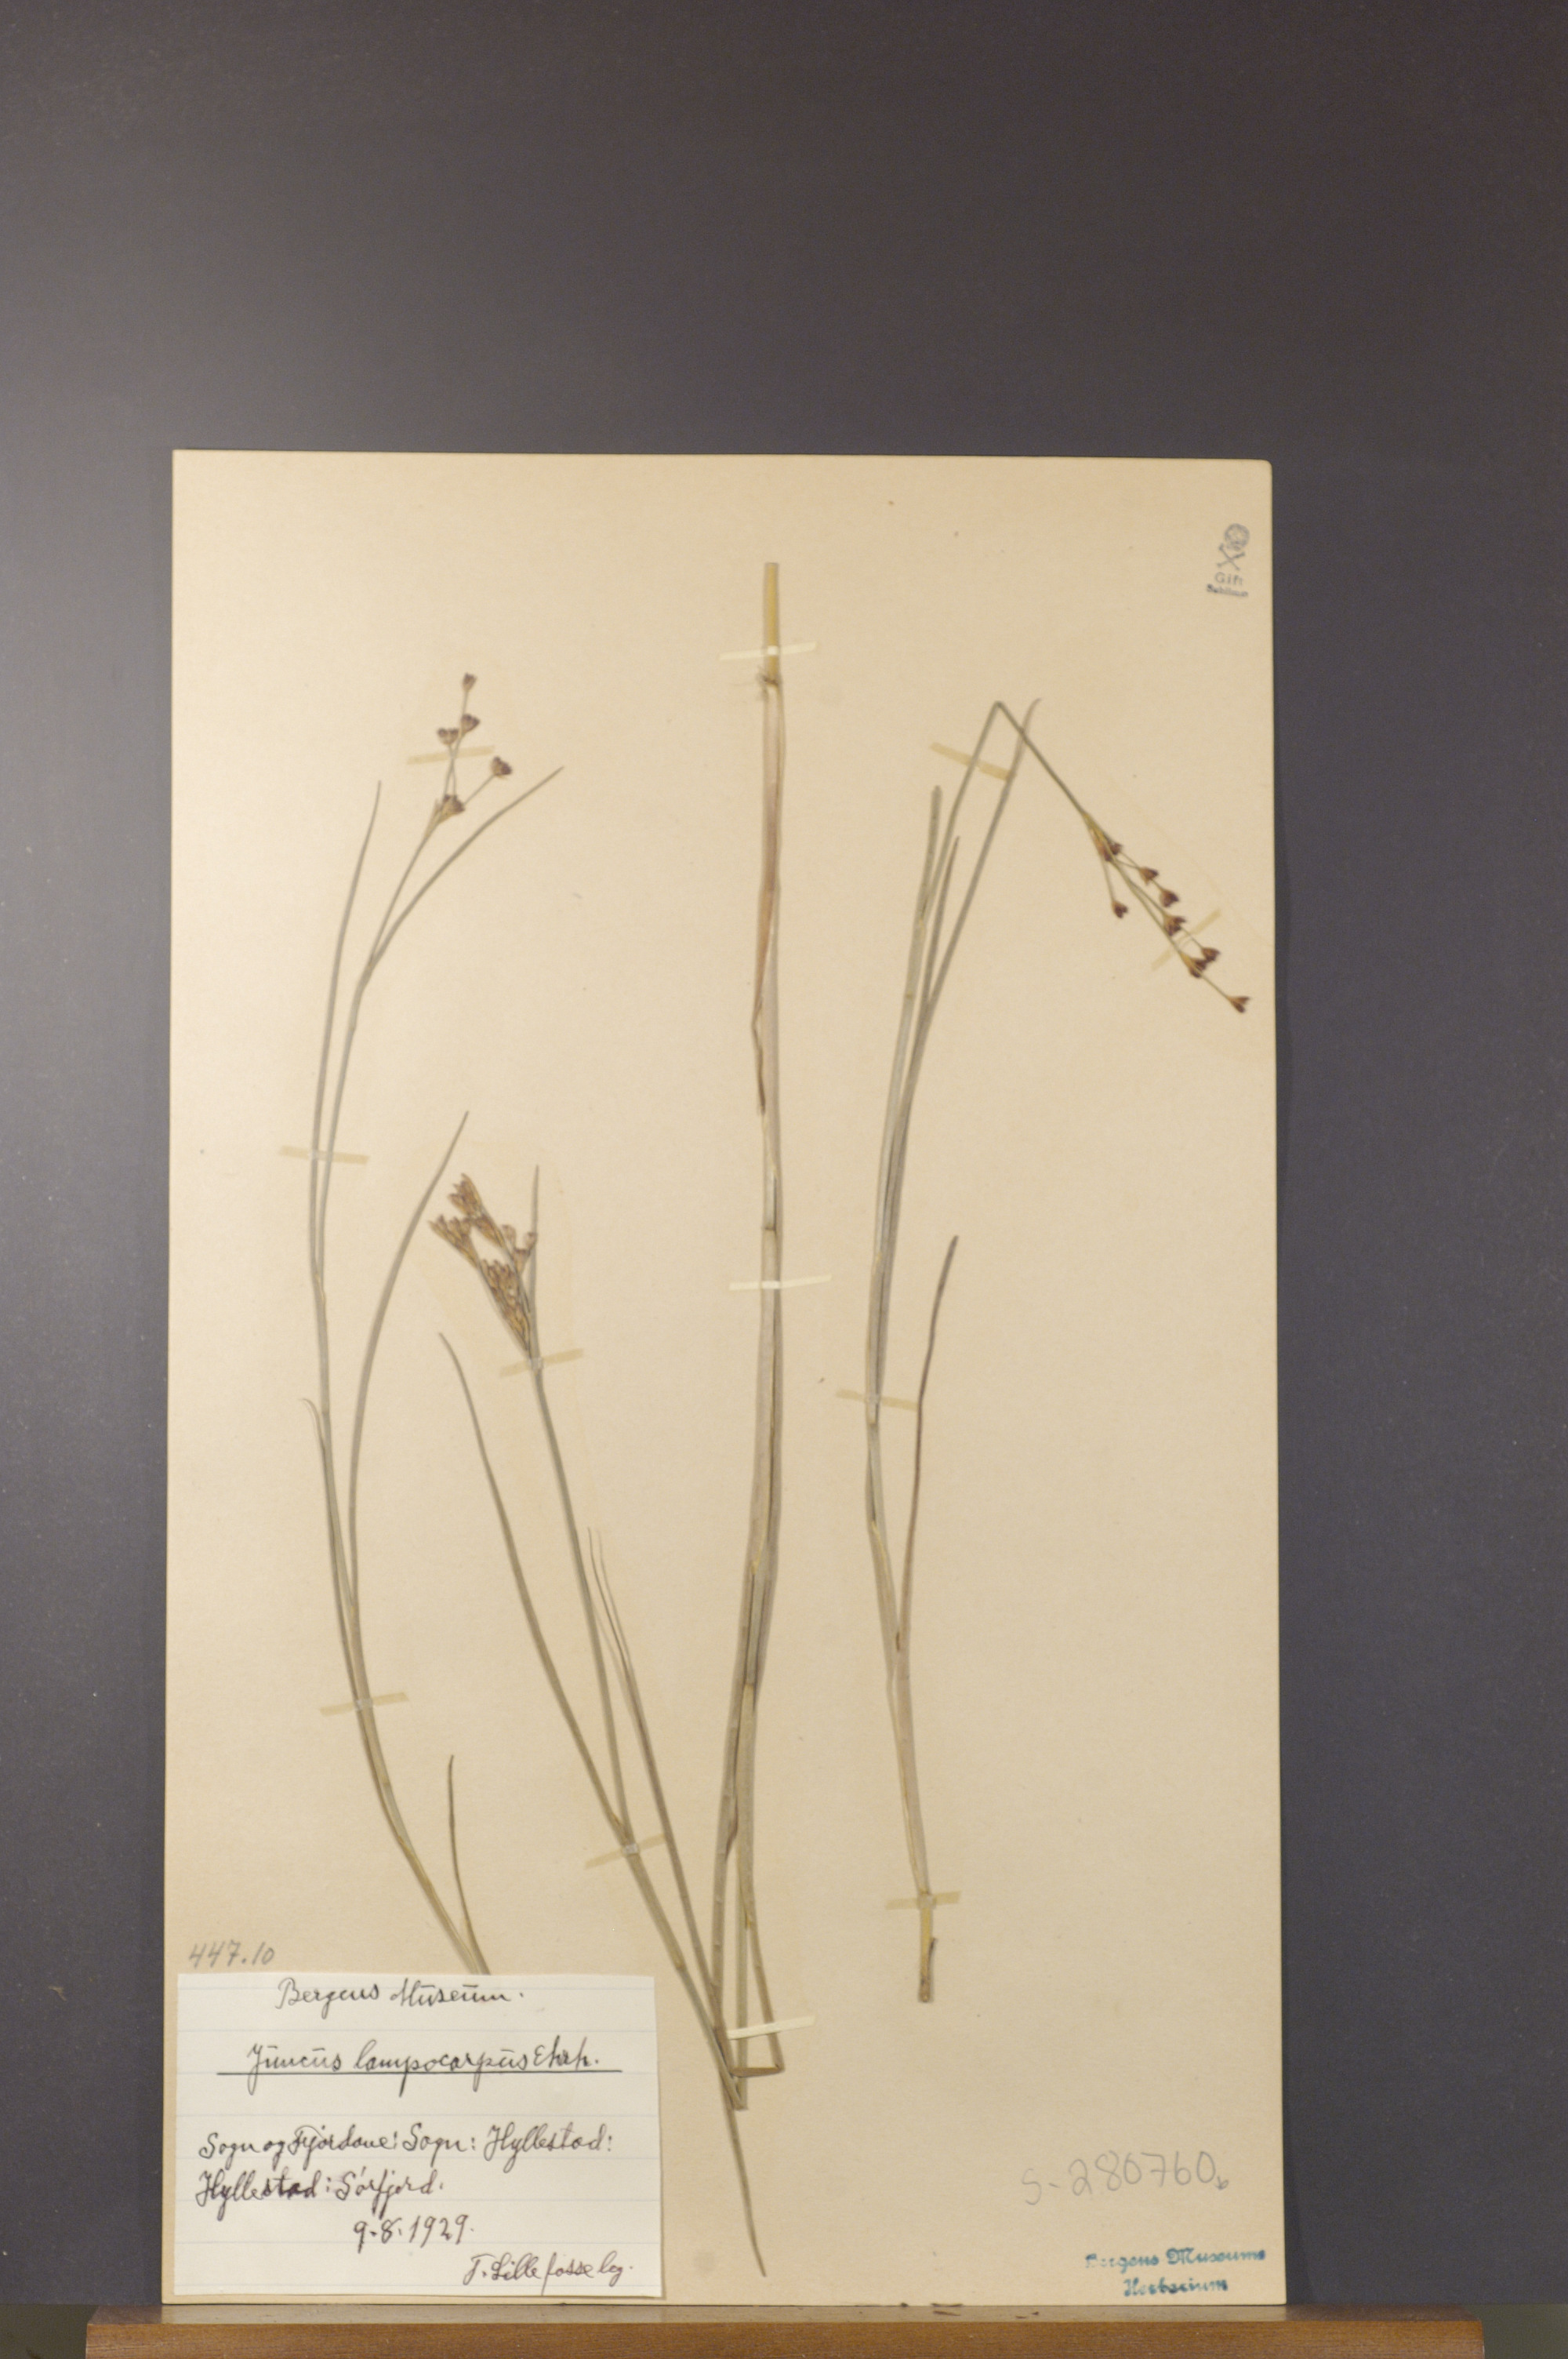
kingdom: Plantae
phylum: Tracheophyta
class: Liliopsida
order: Poales
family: Juncaceae
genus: Juncus
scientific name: Juncus articulatus
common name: Jointed rush
